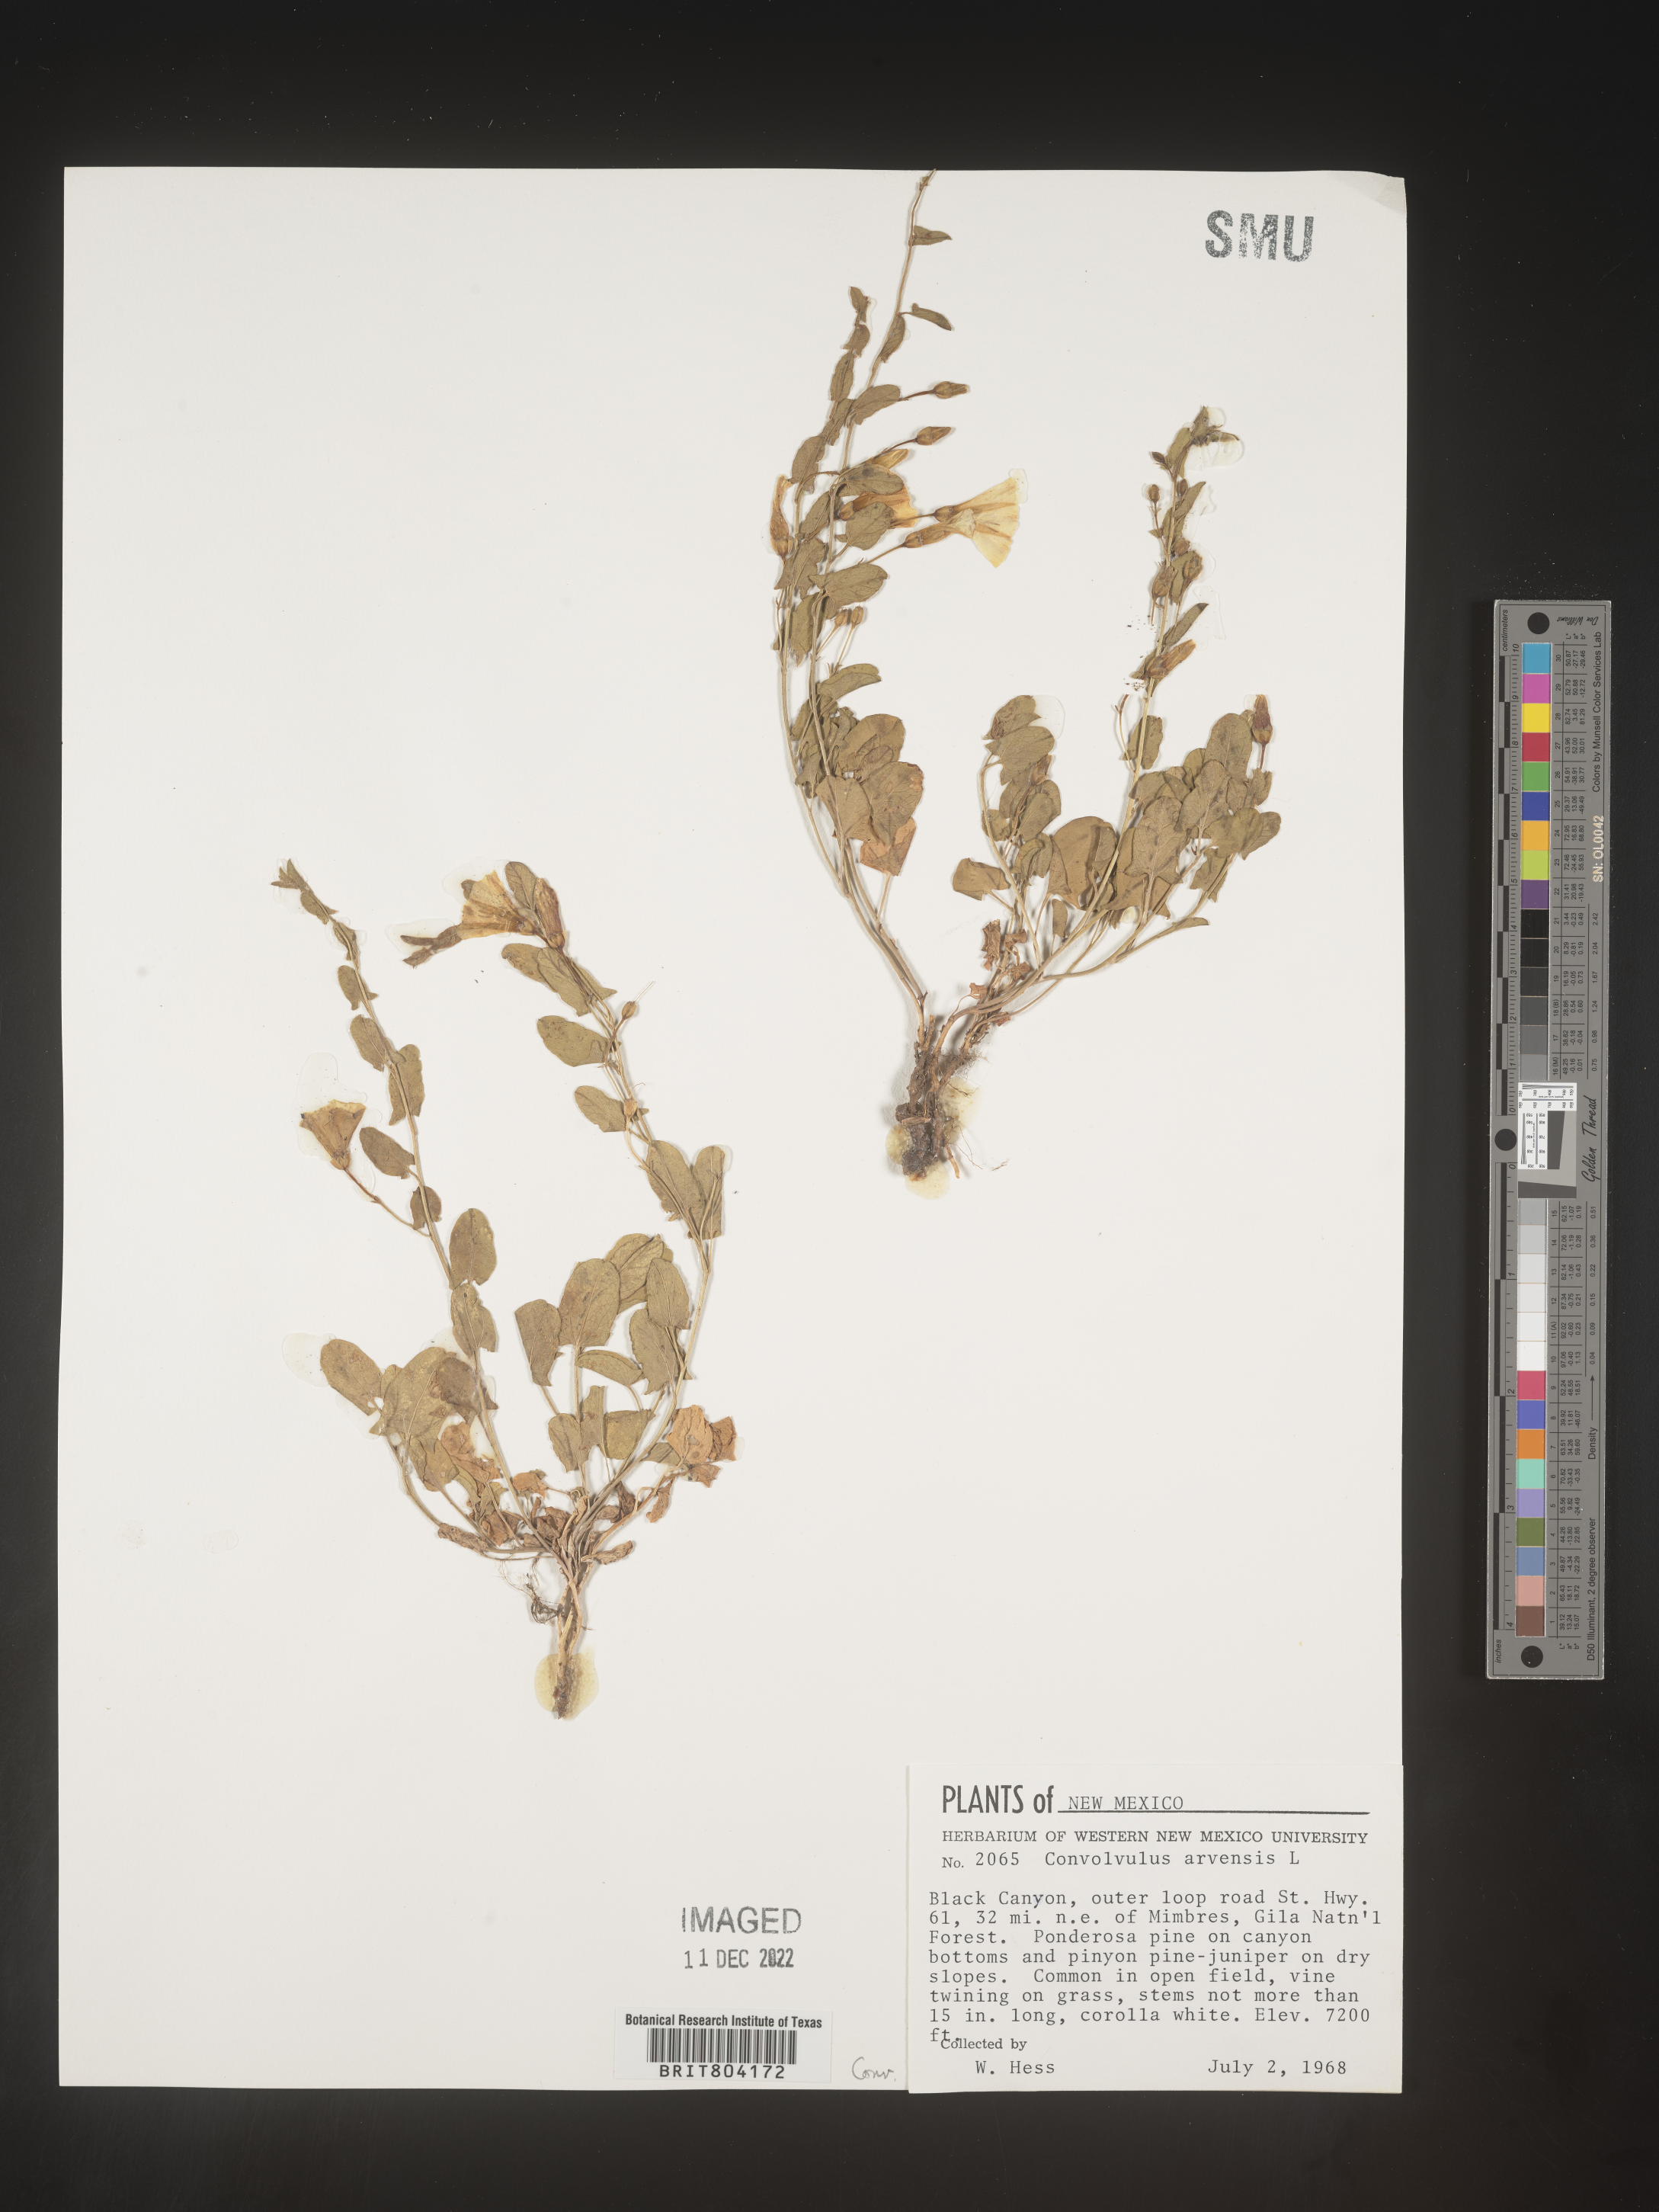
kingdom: Plantae
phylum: Tracheophyta
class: Magnoliopsida
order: Solanales
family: Convolvulaceae
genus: Convolvulus
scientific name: Convolvulus arvensis
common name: Field bindweed
